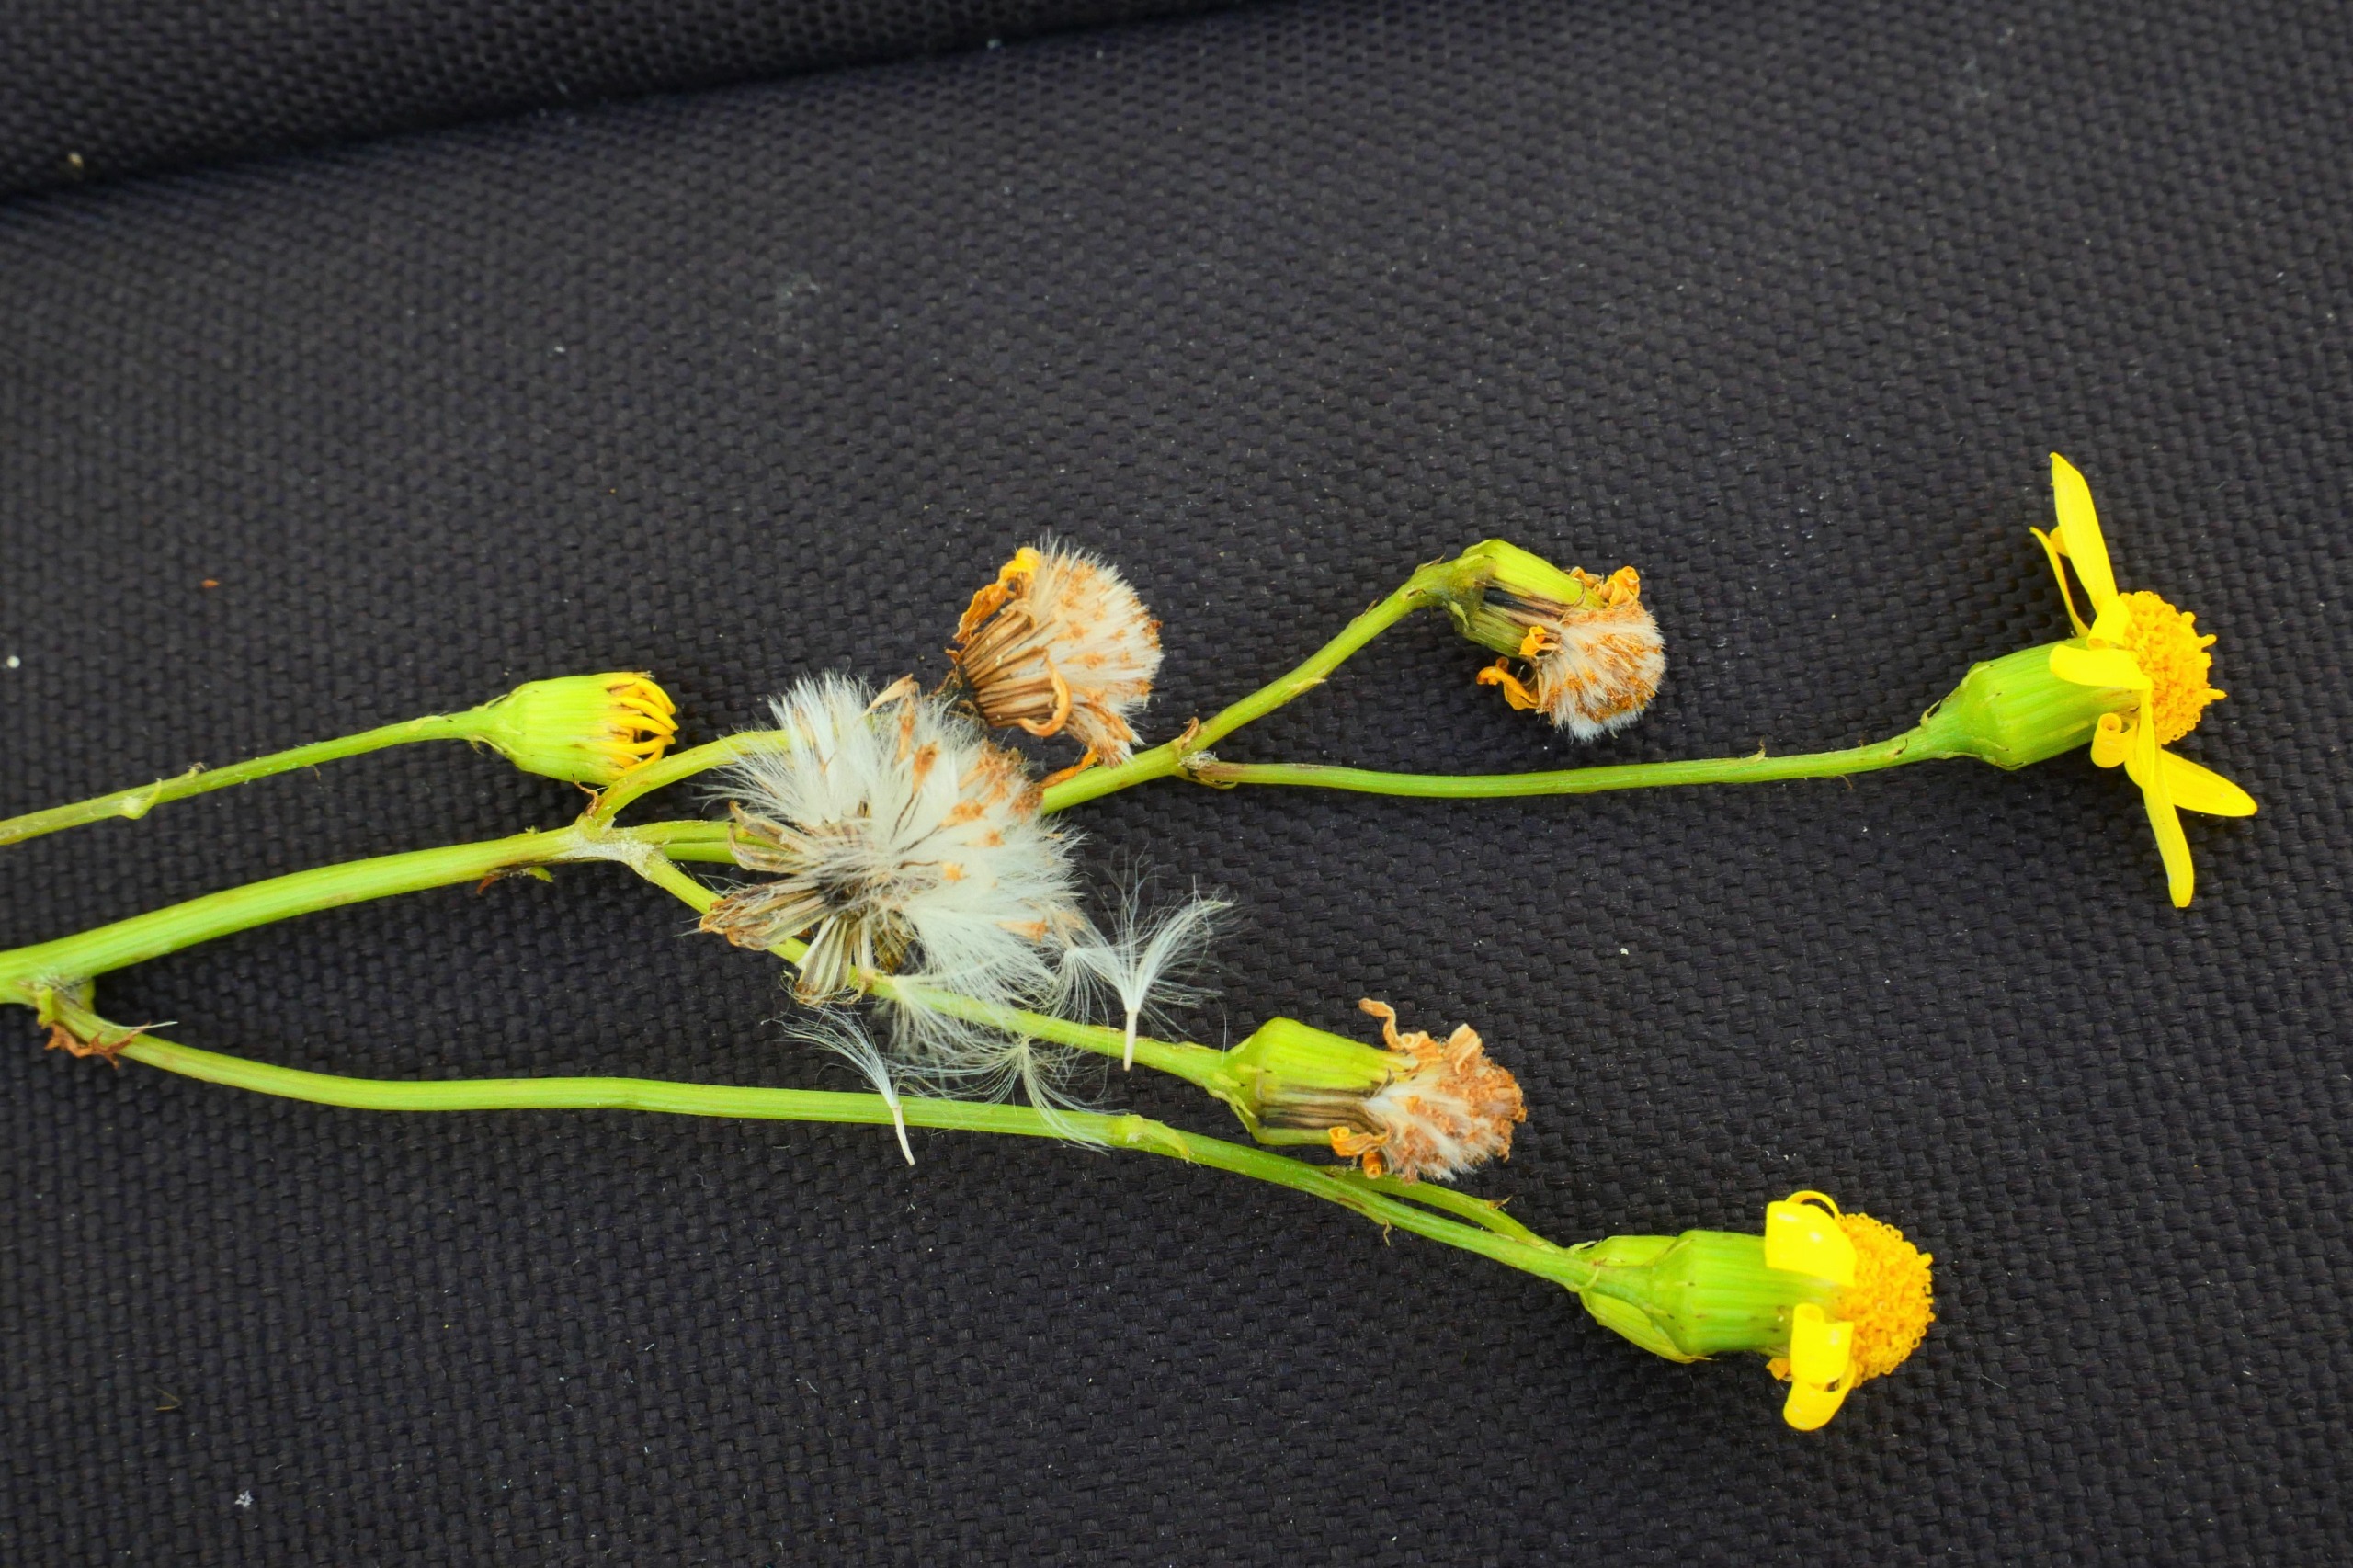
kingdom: Plantae
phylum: Tracheophyta
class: Magnoliopsida
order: Asterales
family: Asteraceae
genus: Senecio
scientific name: Senecio squalidus
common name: Italiensk brandbæger
